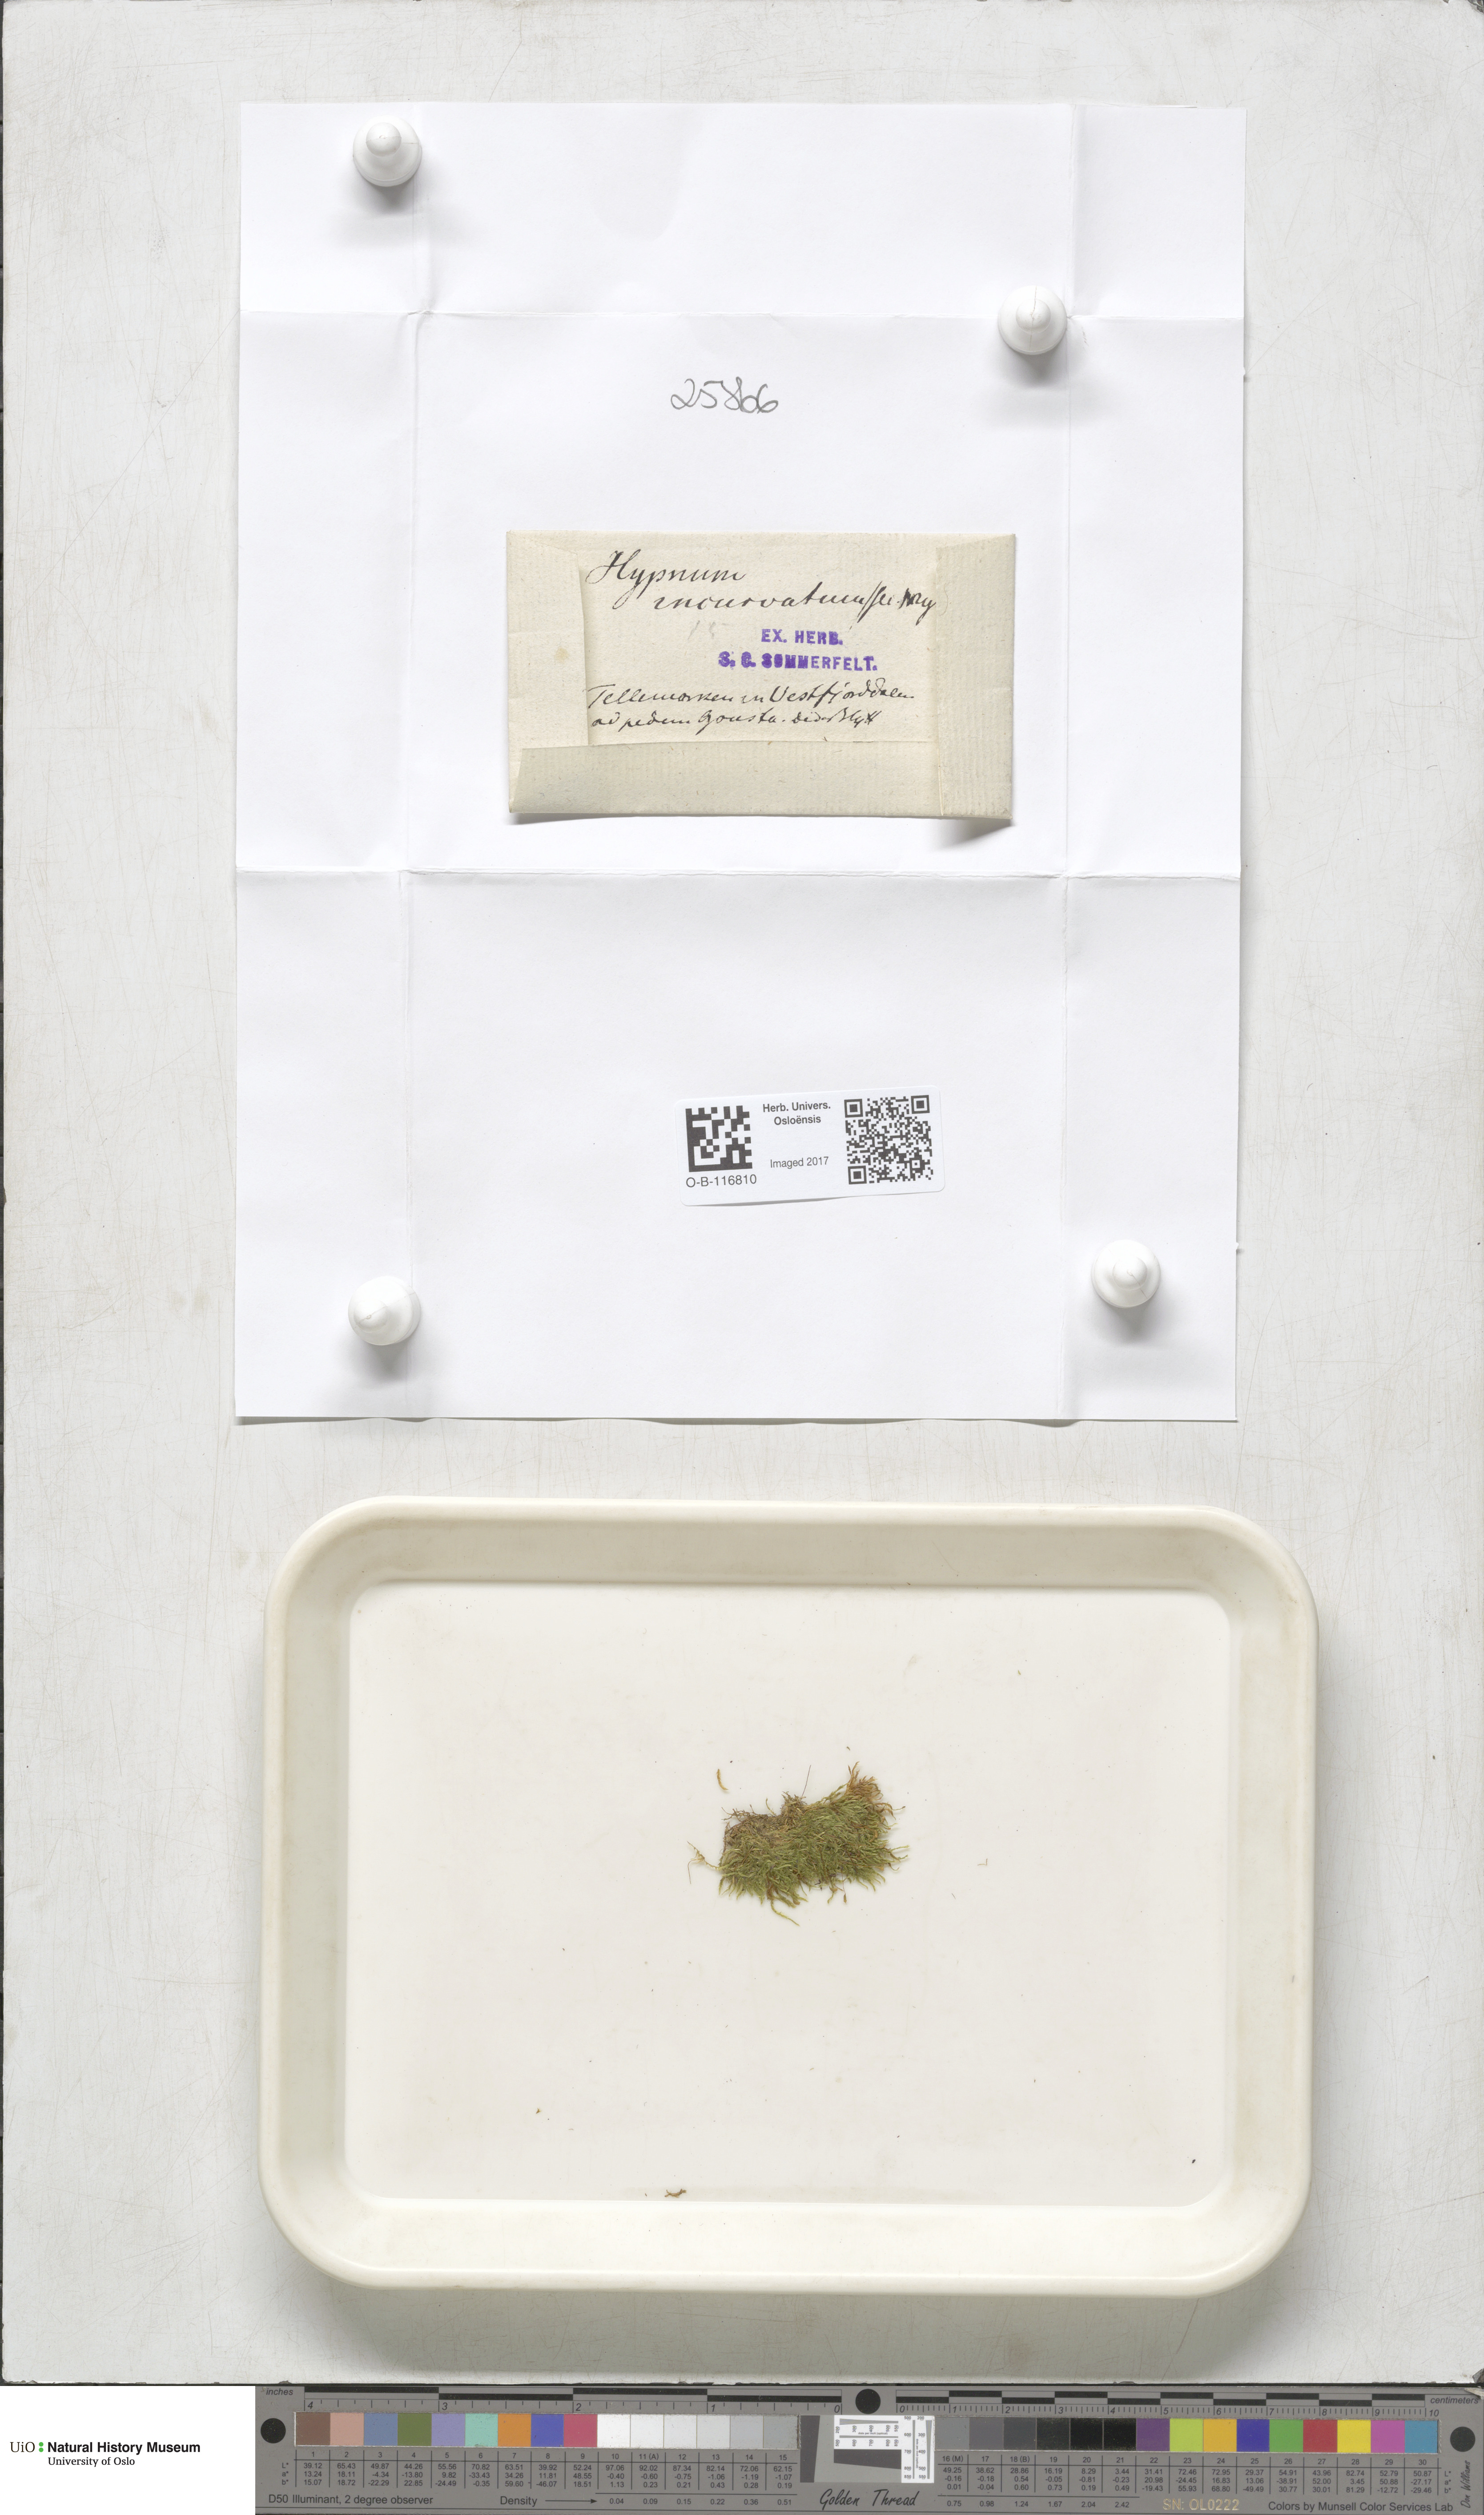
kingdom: Plantae
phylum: Bryophyta
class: Bryopsida
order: Hypnales
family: Pylaisiaceae
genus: Homomallium
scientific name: Homomallium incurvatum
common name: Incurved feather-moss
